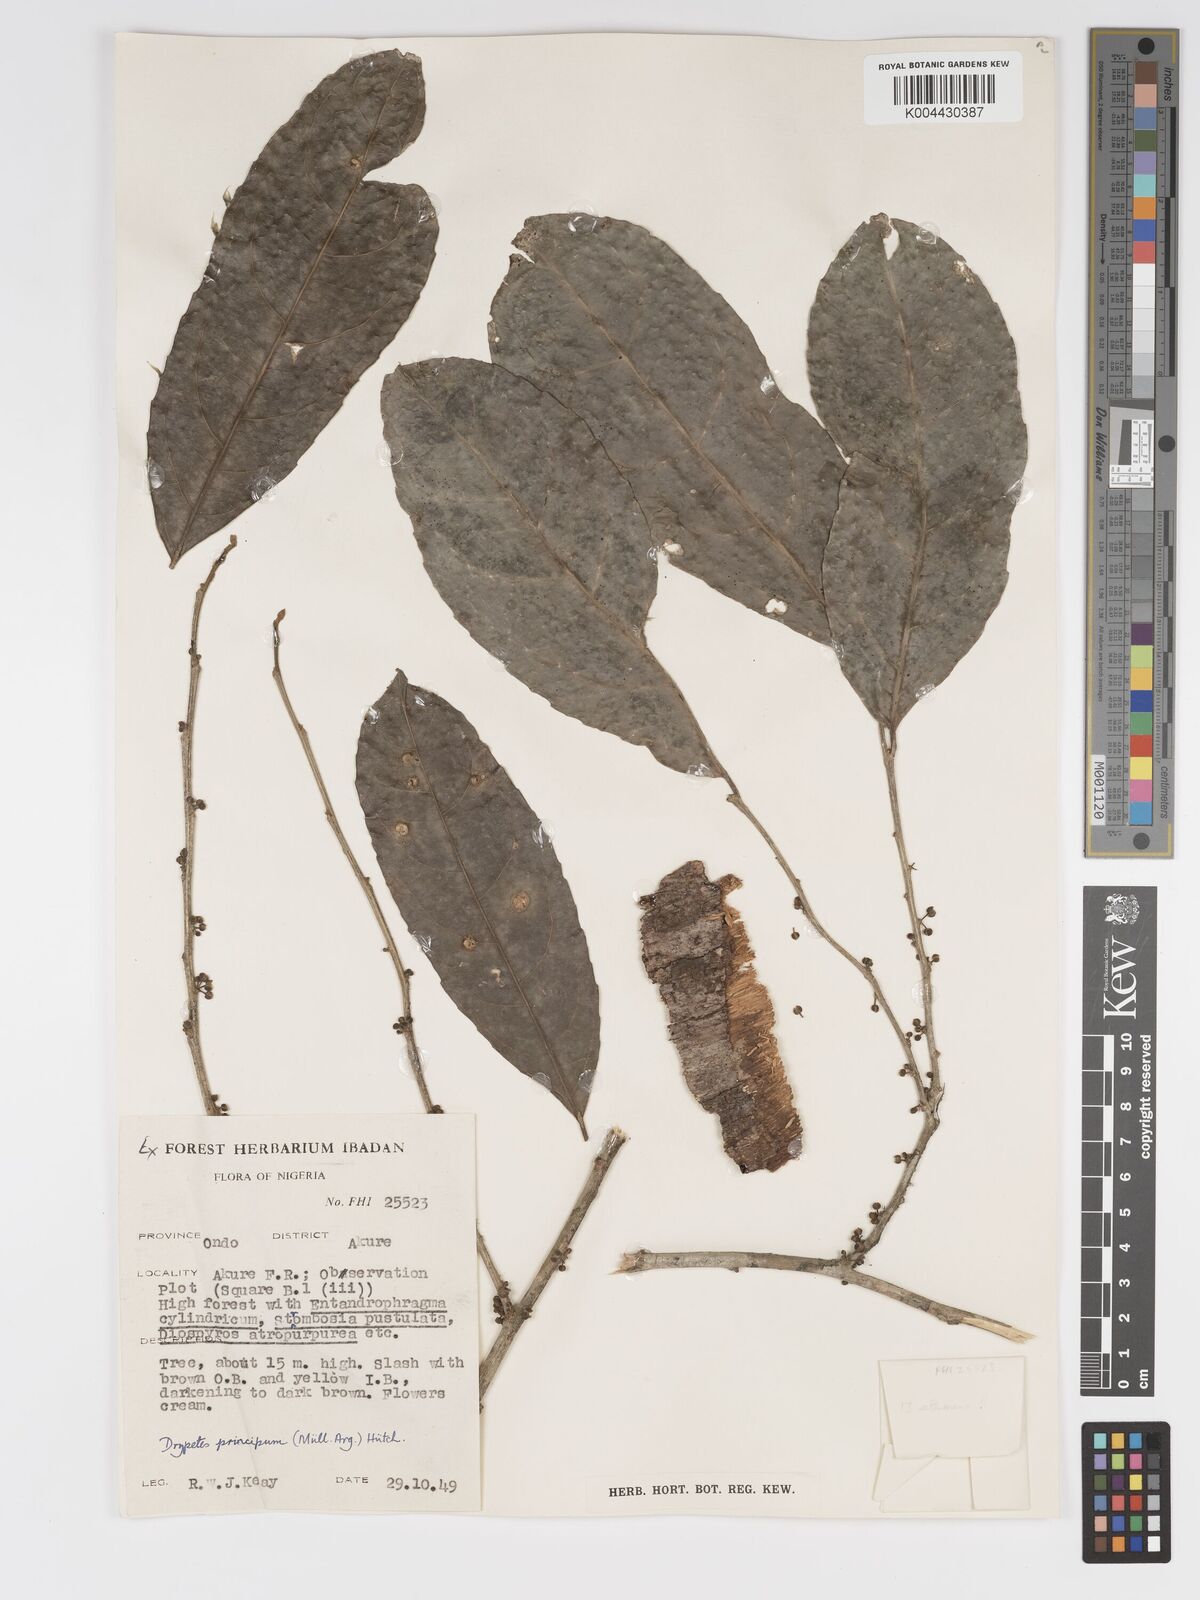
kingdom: Plantae
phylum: Tracheophyta
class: Magnoliopsida
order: Malpighiales
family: Putranjivaceae
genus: Drypetes
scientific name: Drypetes principum
